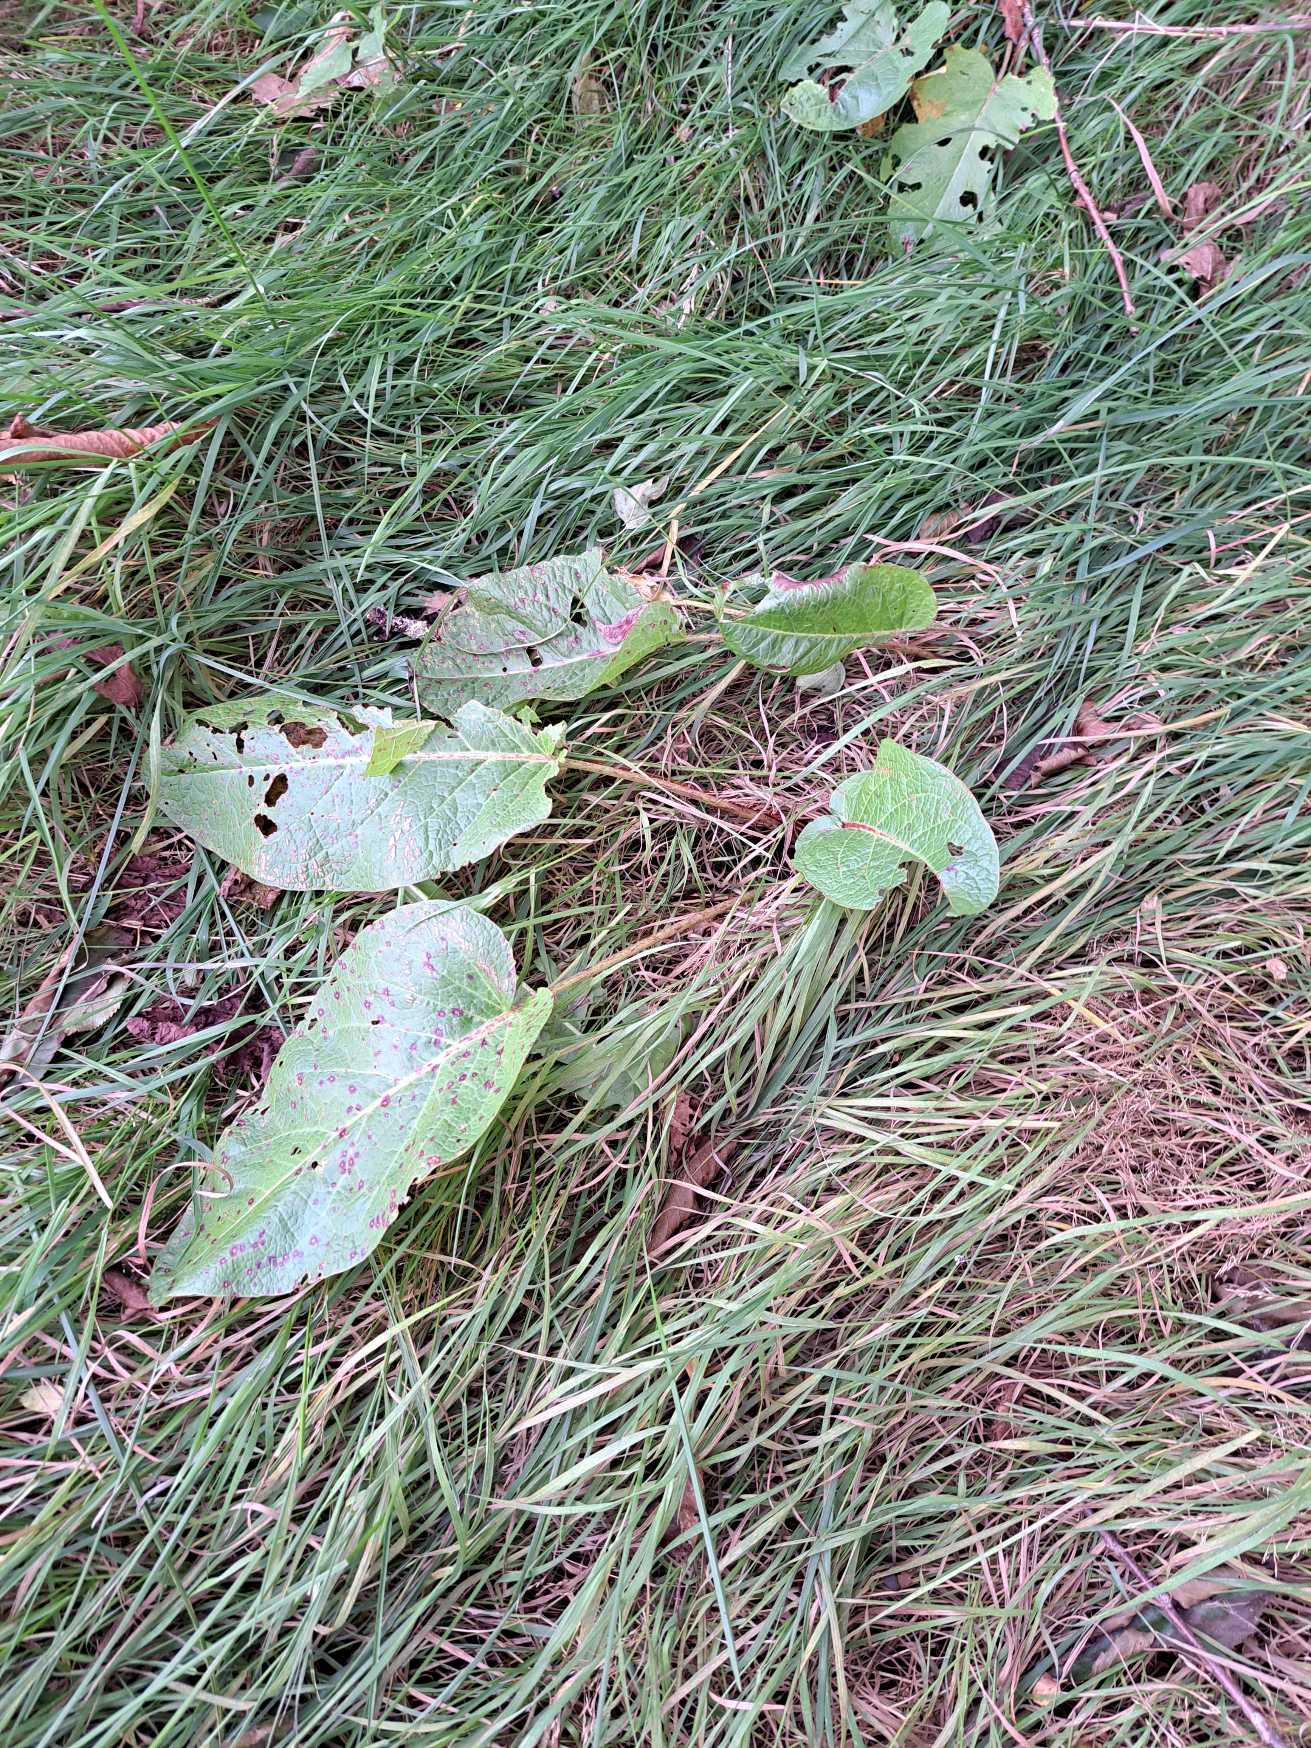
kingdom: Plantae
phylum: Tracheophyta
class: Magnoliopsida
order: Caryophyllales
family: Polygonaceae
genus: Rumex
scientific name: Rumex obtusifolius
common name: Butbladet skræppe
